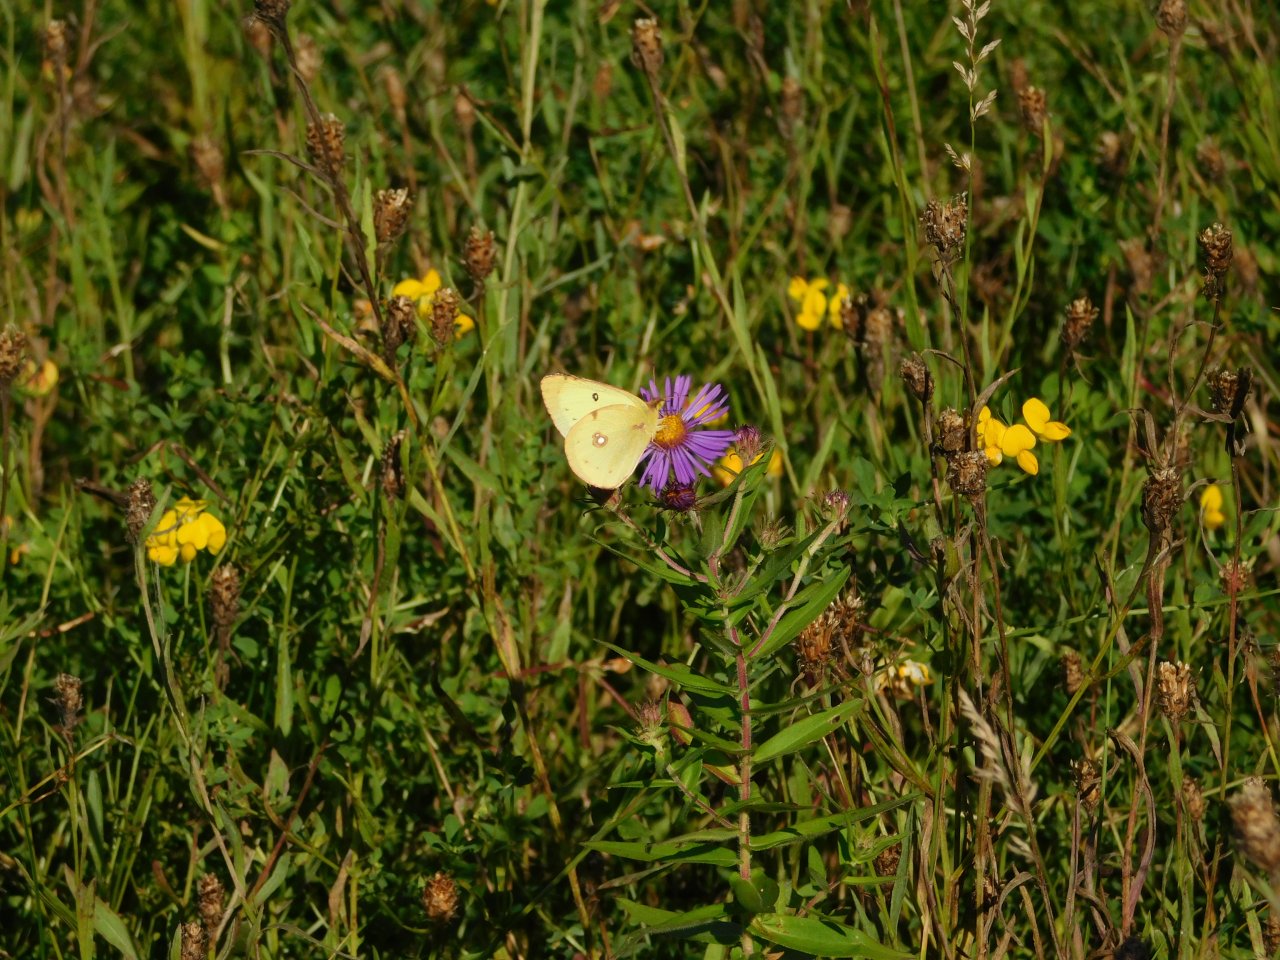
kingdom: Animalia
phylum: Arthropoda
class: Insecta
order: Lepidoptera
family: Pieridae
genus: Colias
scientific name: Colias philodice
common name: Clouded Sulphur
